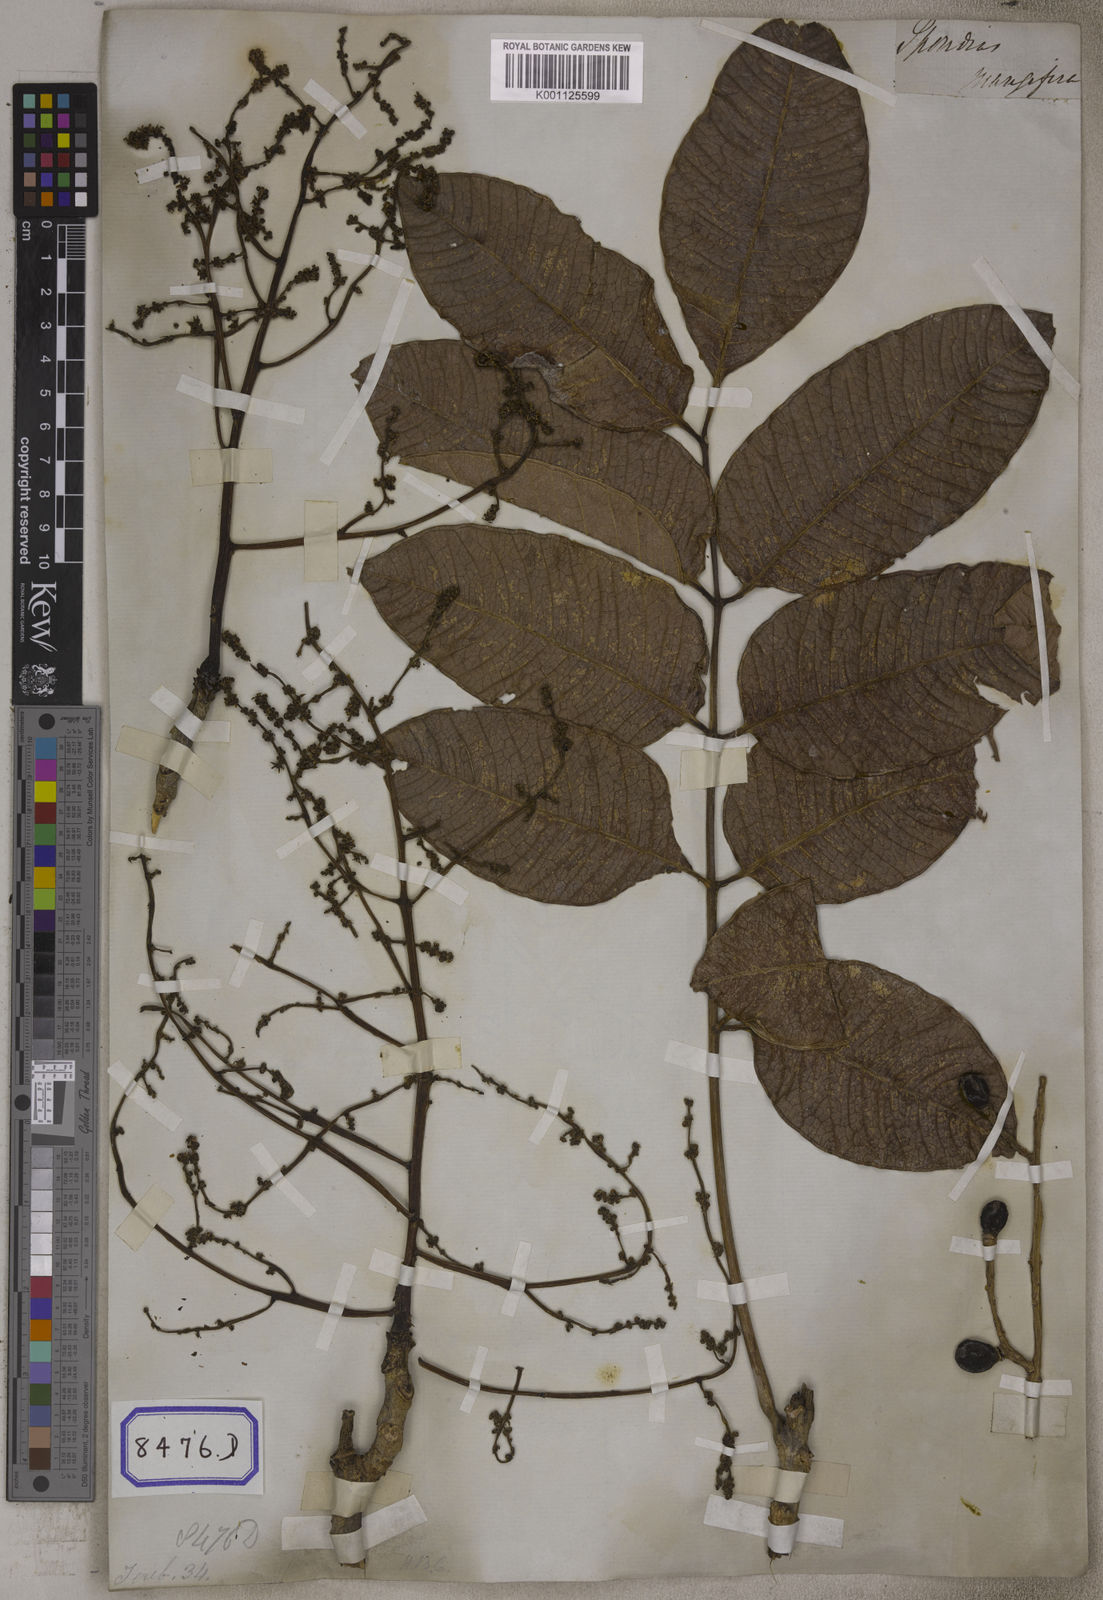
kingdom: Plantae
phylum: Tracheophyta
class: Magnoliopsida
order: Sapindales
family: Anacardiaceae
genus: Spondias
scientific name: Spondias
